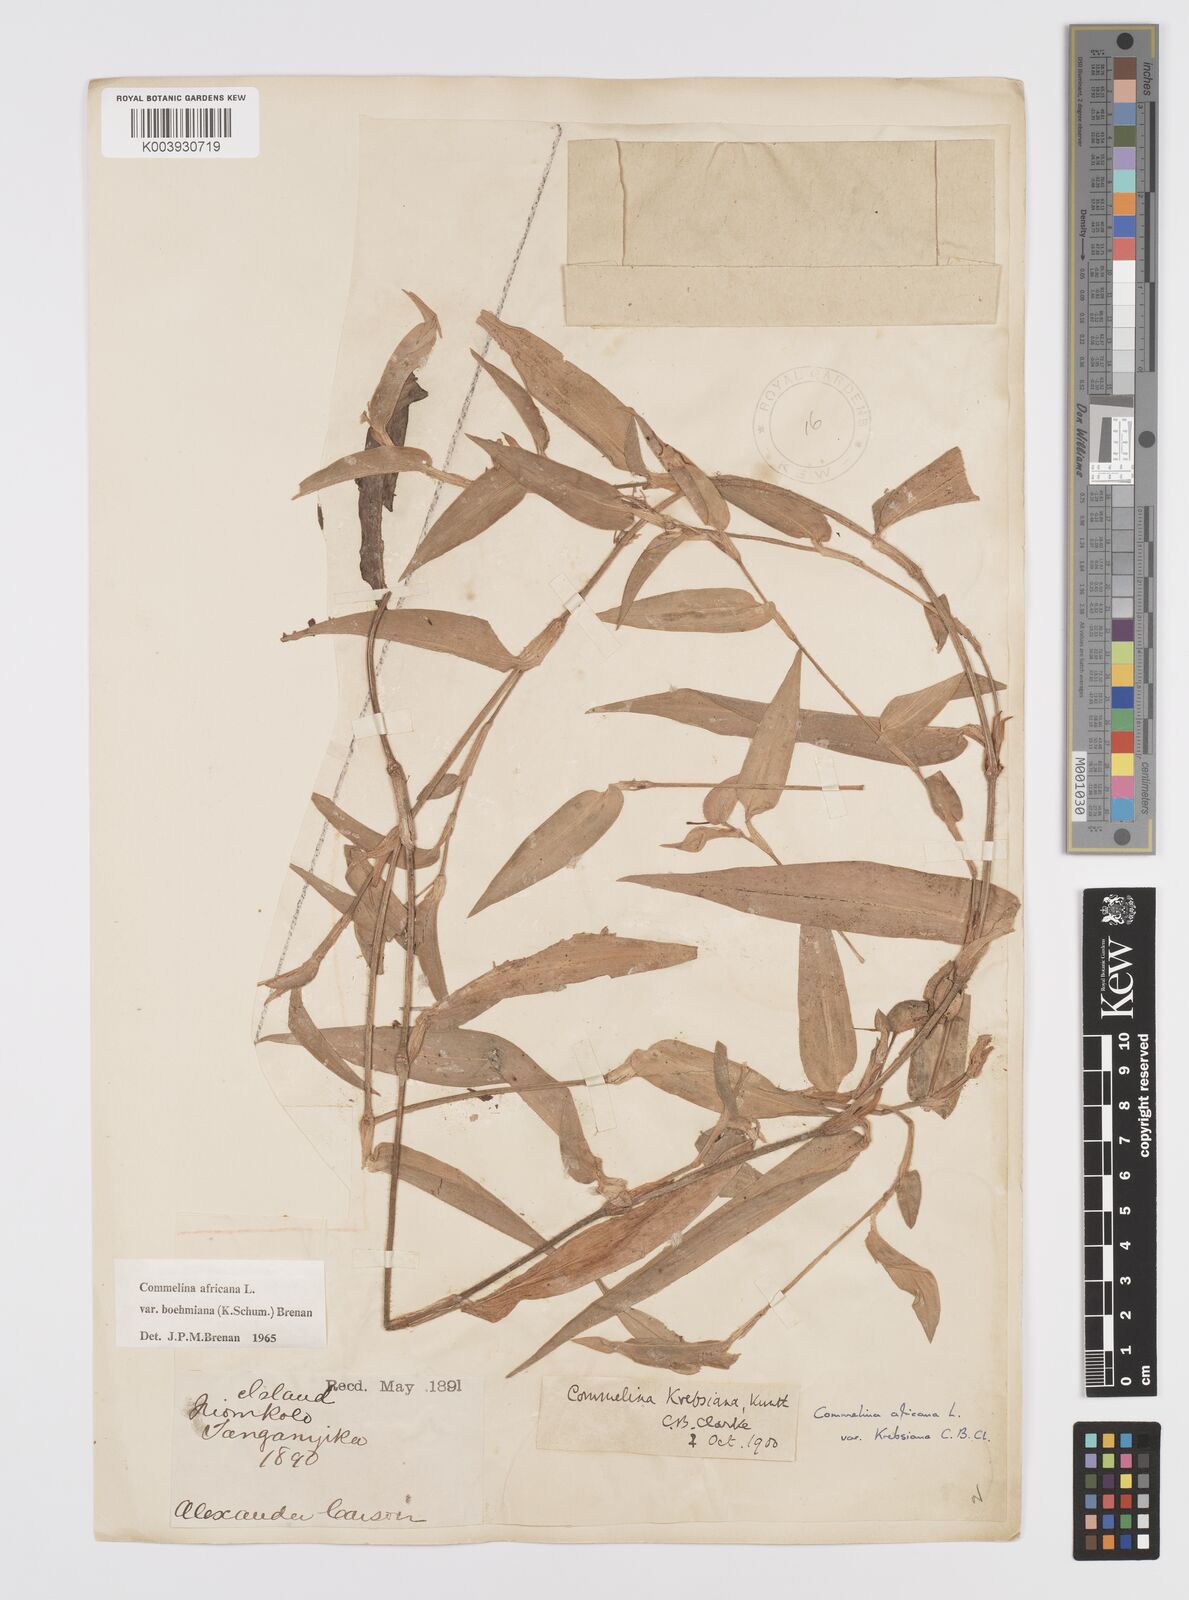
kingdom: Plantae
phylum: Tracheophyta
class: Liliopsida
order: Commelinales
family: Commelinaceae
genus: Commelina
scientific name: Commelina africana
